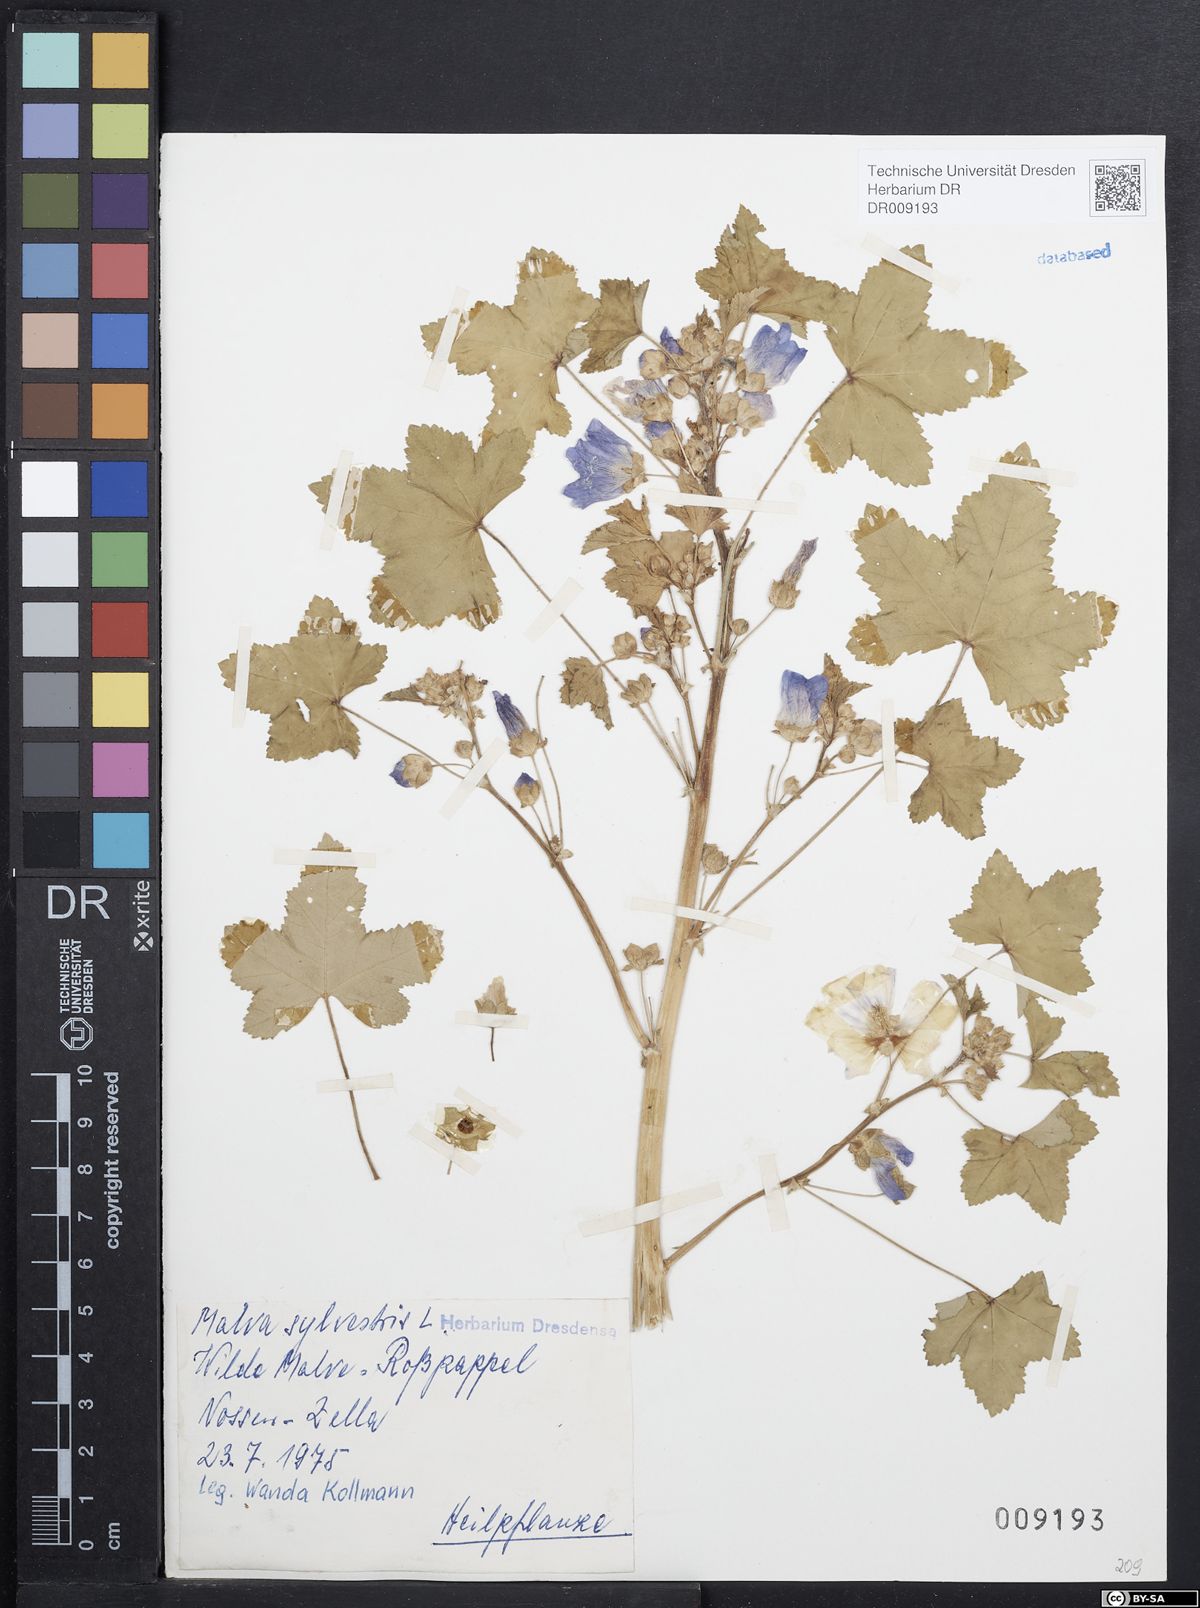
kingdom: Plantae
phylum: Tracheophyta
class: Magnoliopsida
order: Malvales
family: Malvaceae
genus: Malva
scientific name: Malva sylvestris
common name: Common mallow
